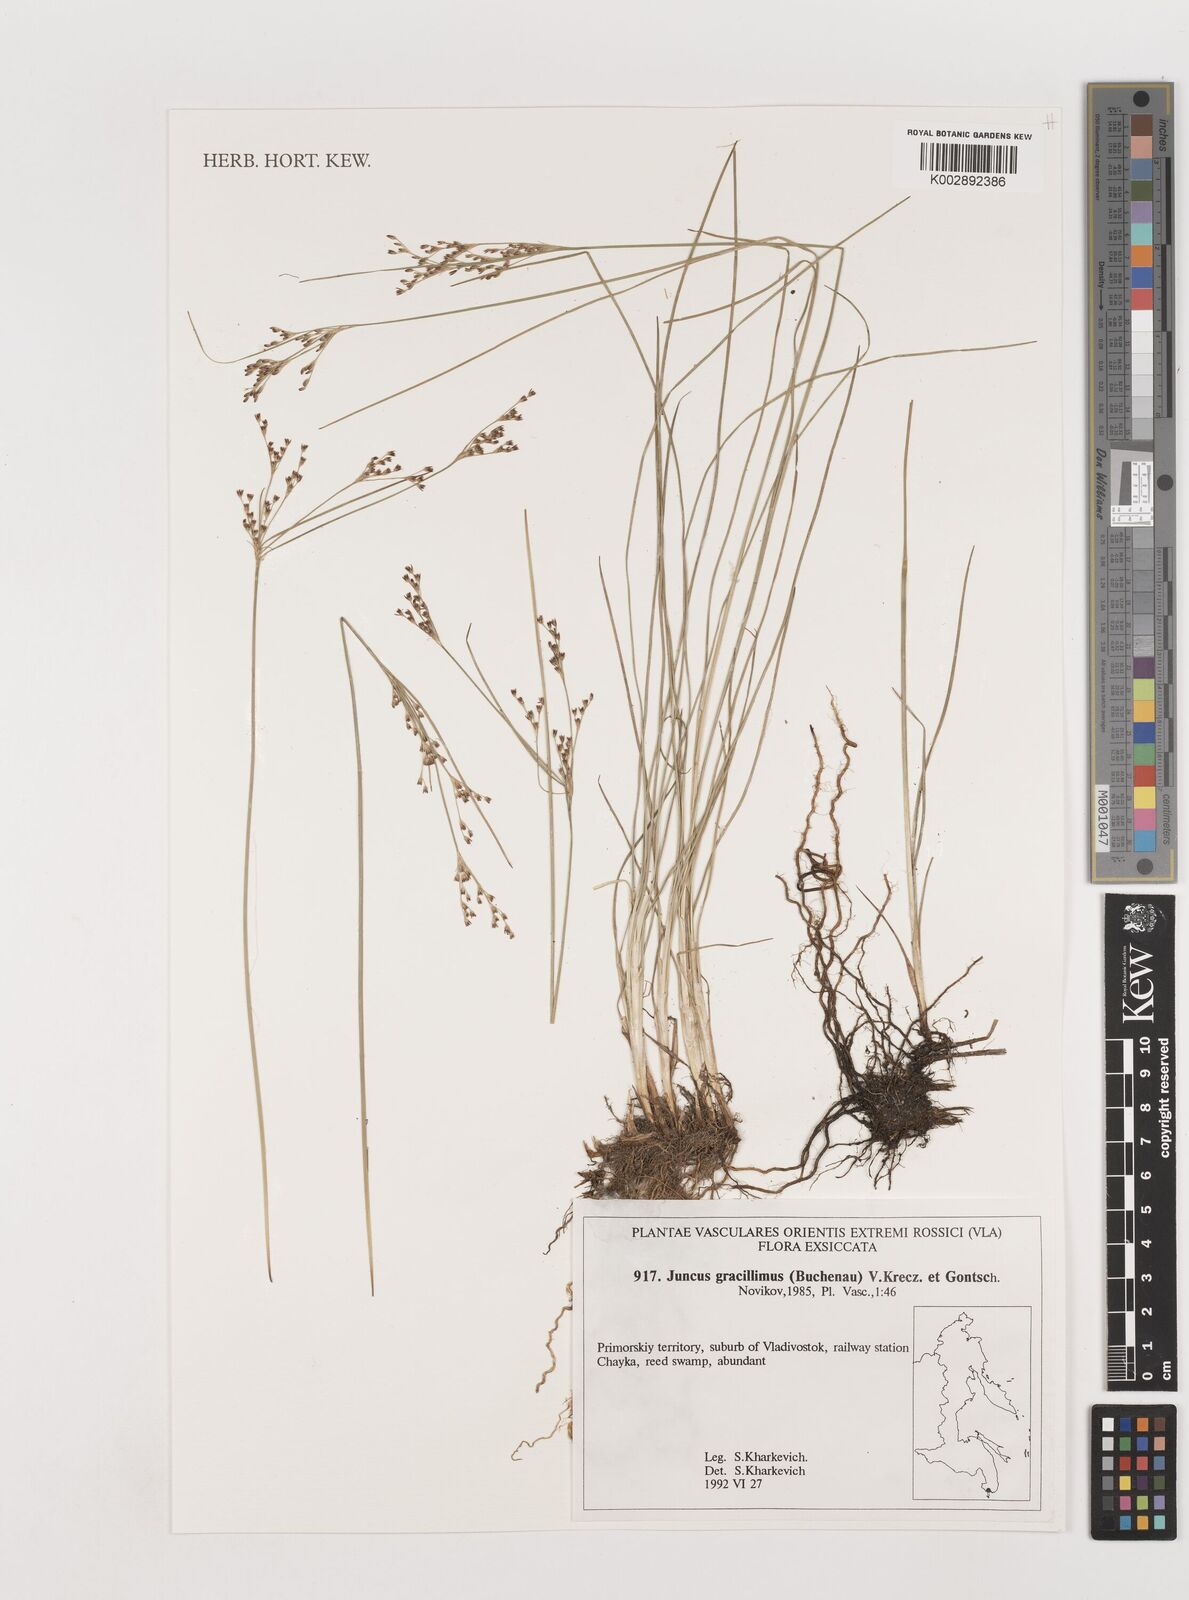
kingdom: Plantae
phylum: Tracheophyta
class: Liliopsida
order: Poales
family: Juncaceae
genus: Juncus
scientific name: Juncus gracillimus
